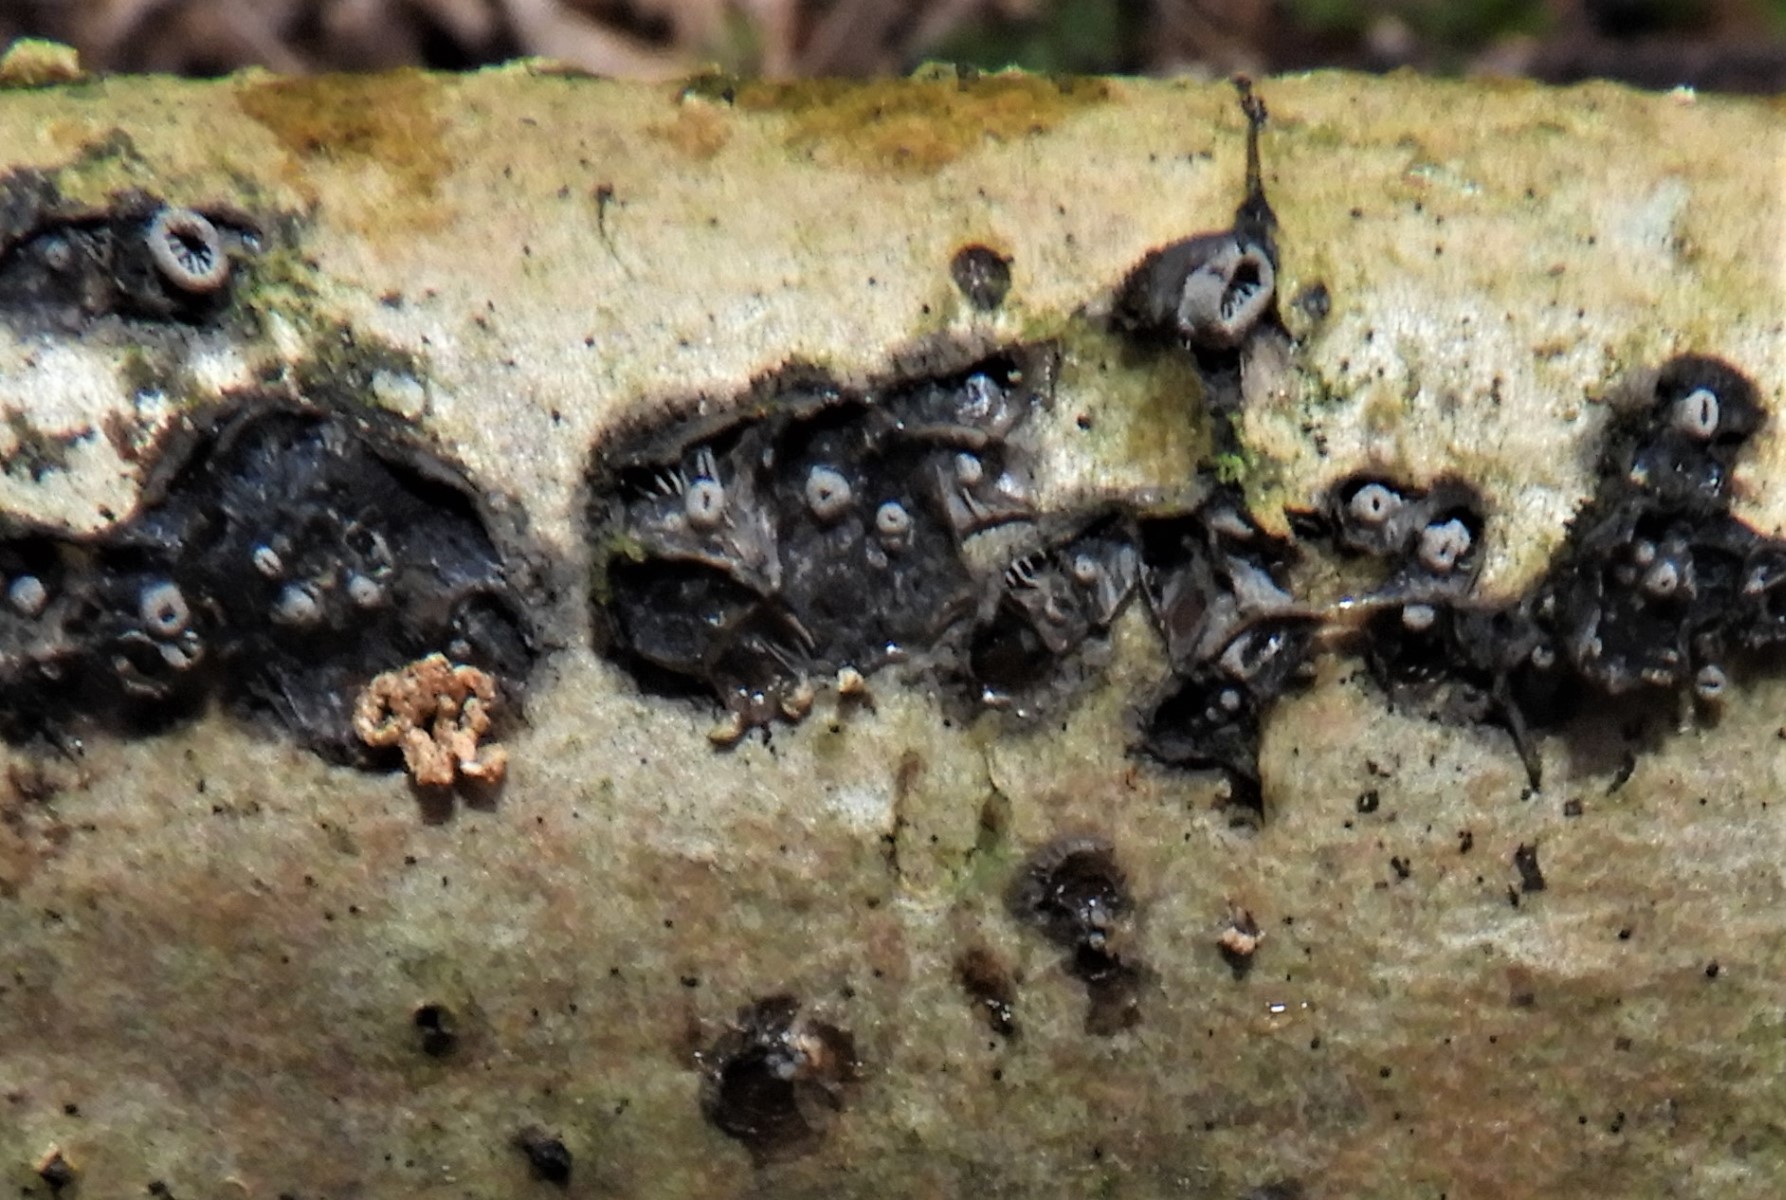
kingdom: Fungi
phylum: Basidiomycota
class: Agaricomycetes
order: Agaricales
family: Pleurotaceae
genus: Resupinatus
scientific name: Resupinatus applicatus
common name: lysfiltet barkhat
